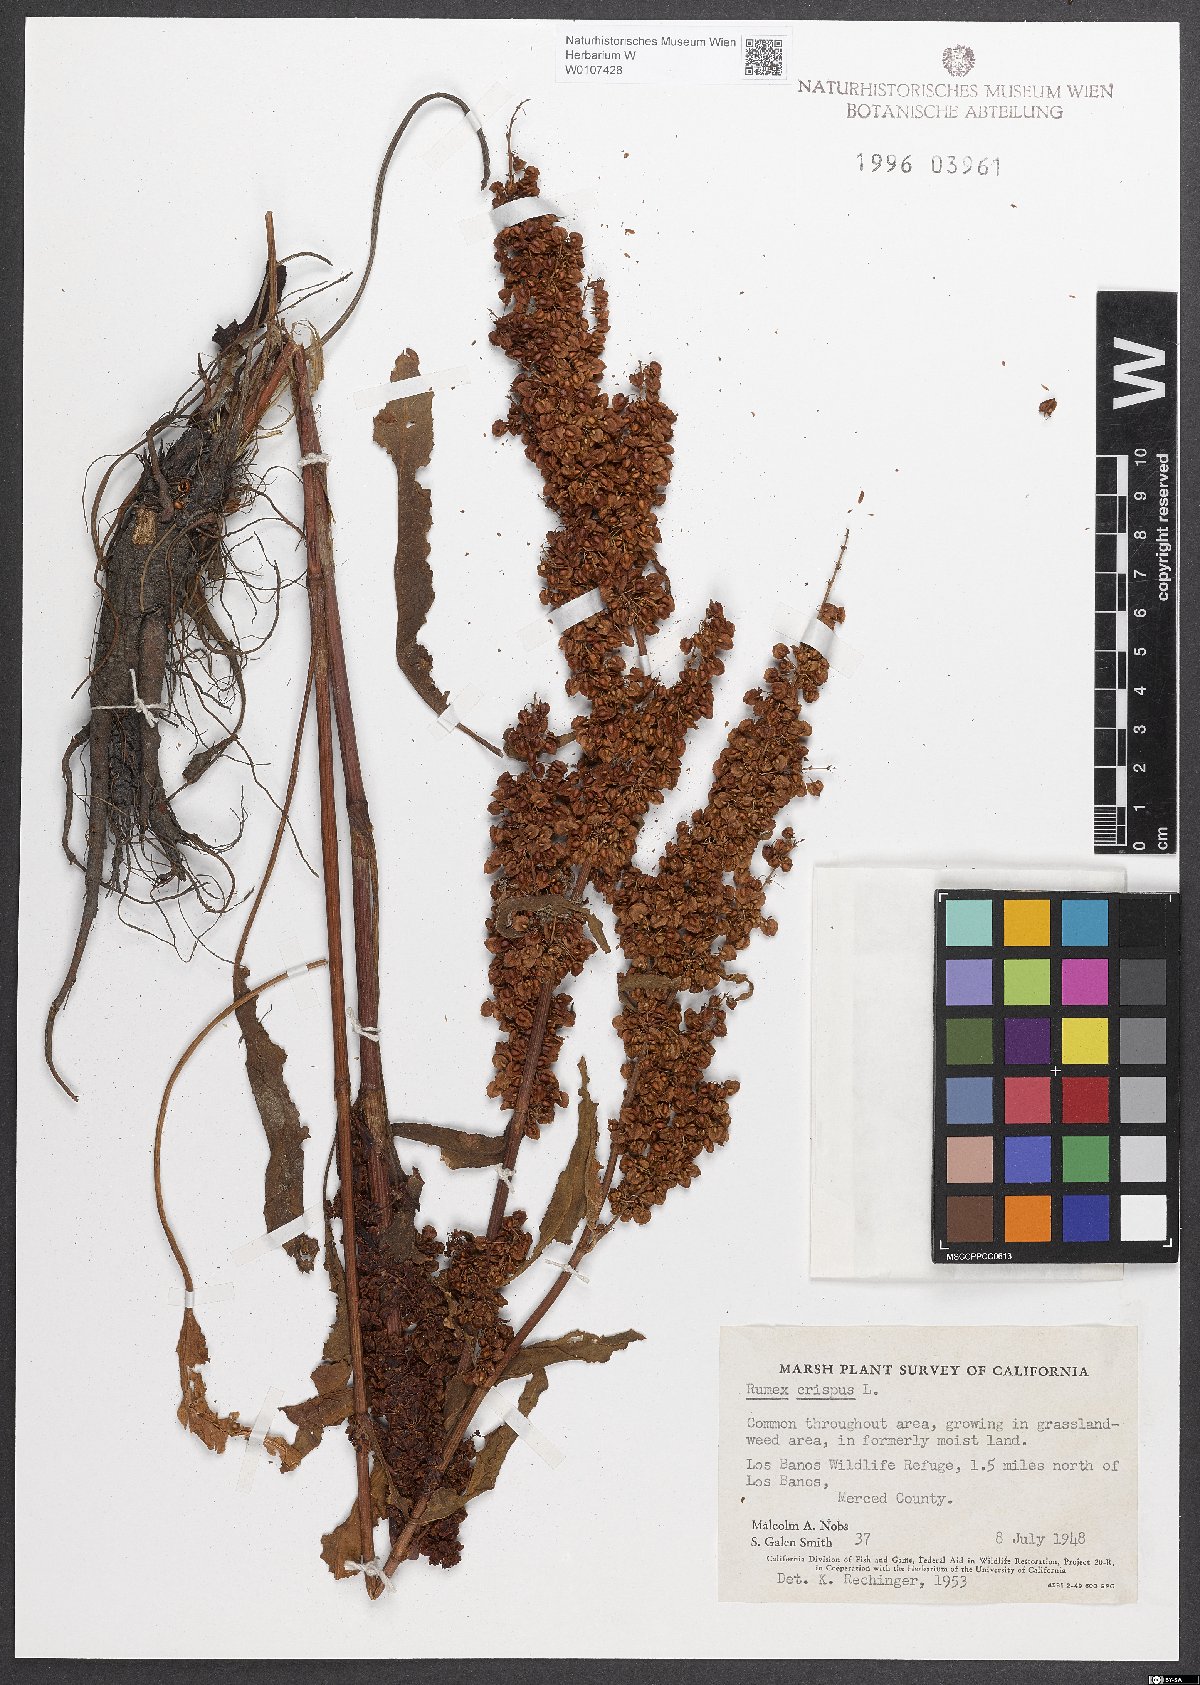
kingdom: Plantae
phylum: Tracheophyta
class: Magnoliopsida
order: Caryophyllales
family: Polygonaceae
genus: Rumex
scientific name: Rumex crispus
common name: Curled dock
